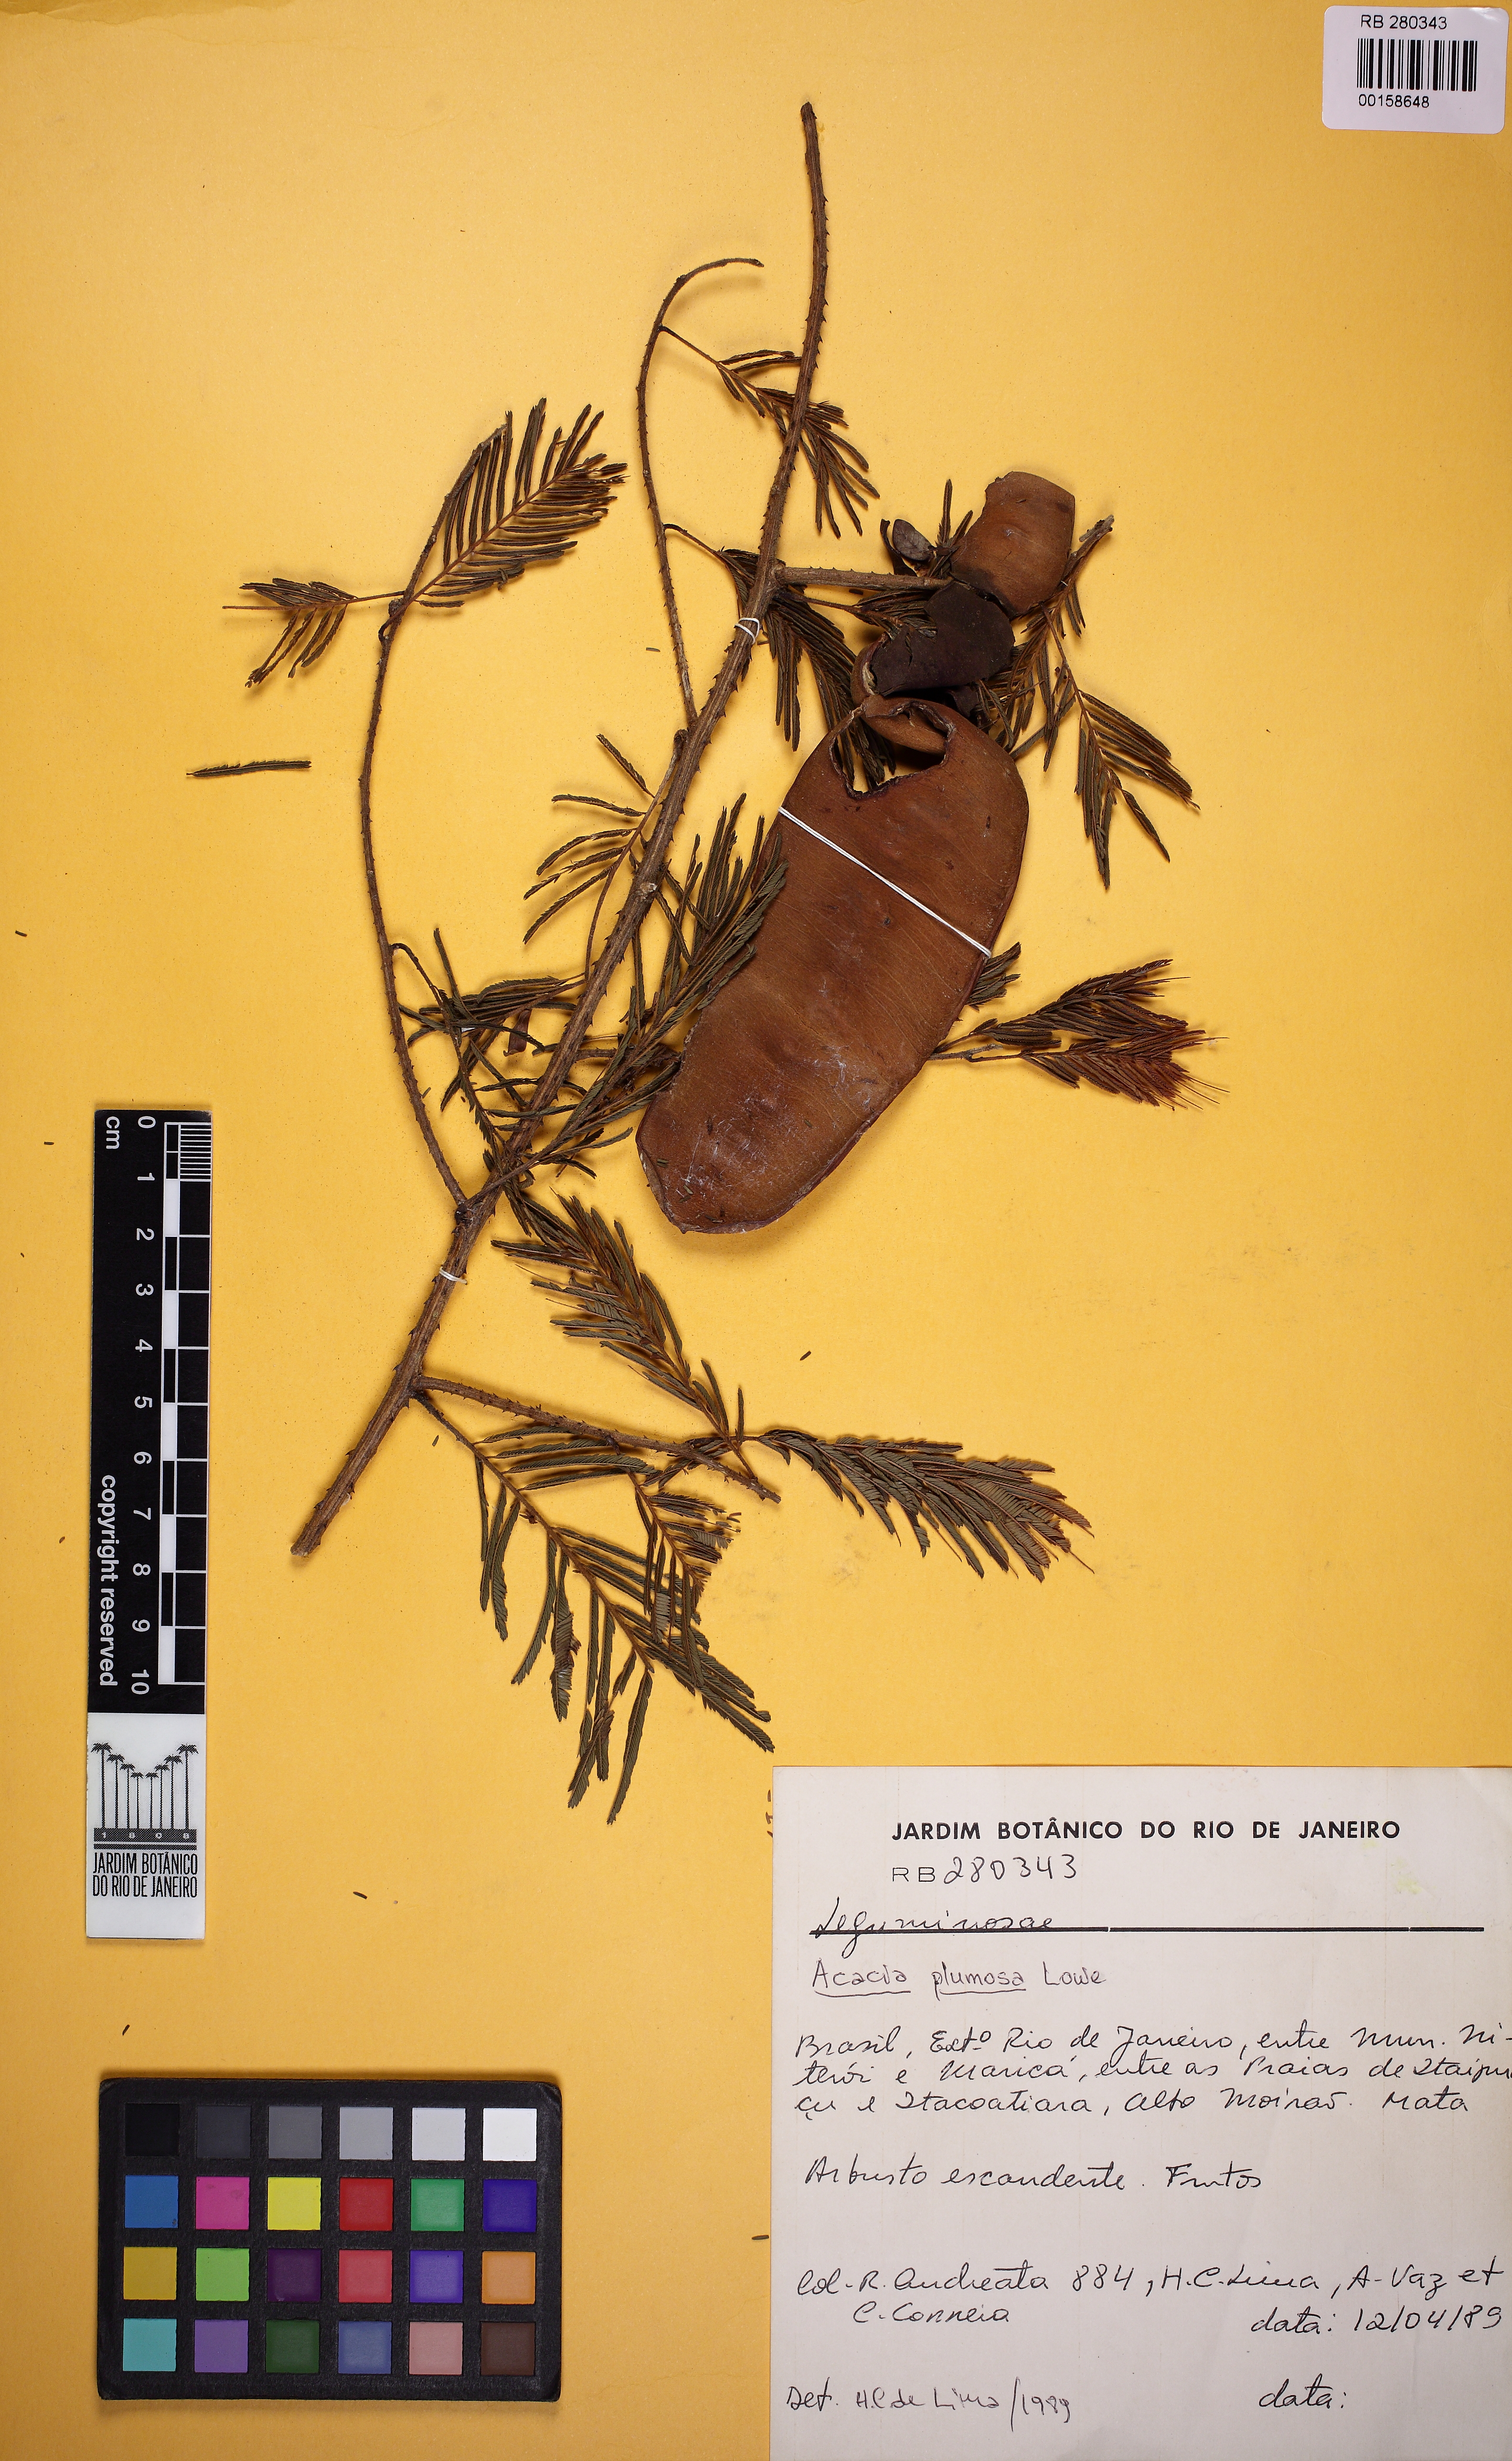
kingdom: Plantae
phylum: Tracheophyta
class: Magnoliopsida
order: Fabales
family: Fabaceae
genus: Senegalia
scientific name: Senegalia angico
